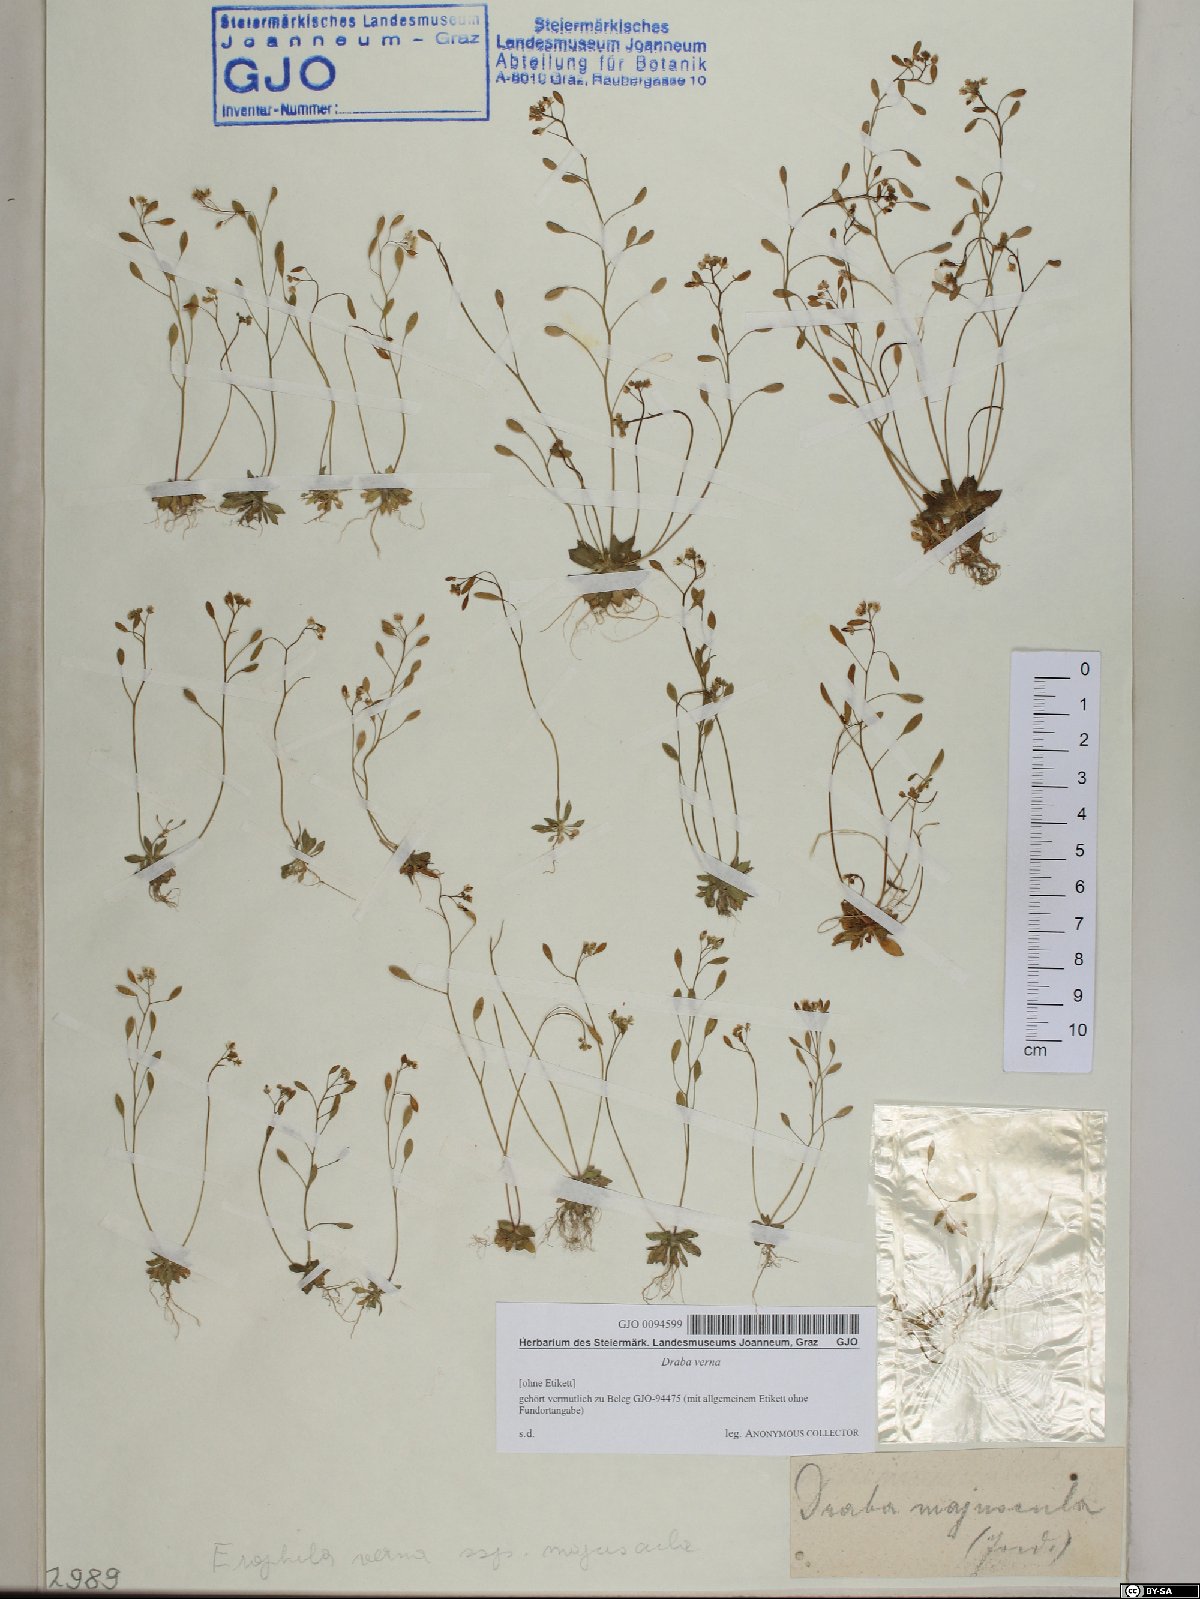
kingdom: Plantae
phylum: Tracheophyta
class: Magnoliopsida
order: Brassicales
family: Brassicaceae
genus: Draba
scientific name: Draba verna
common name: Spring draba
